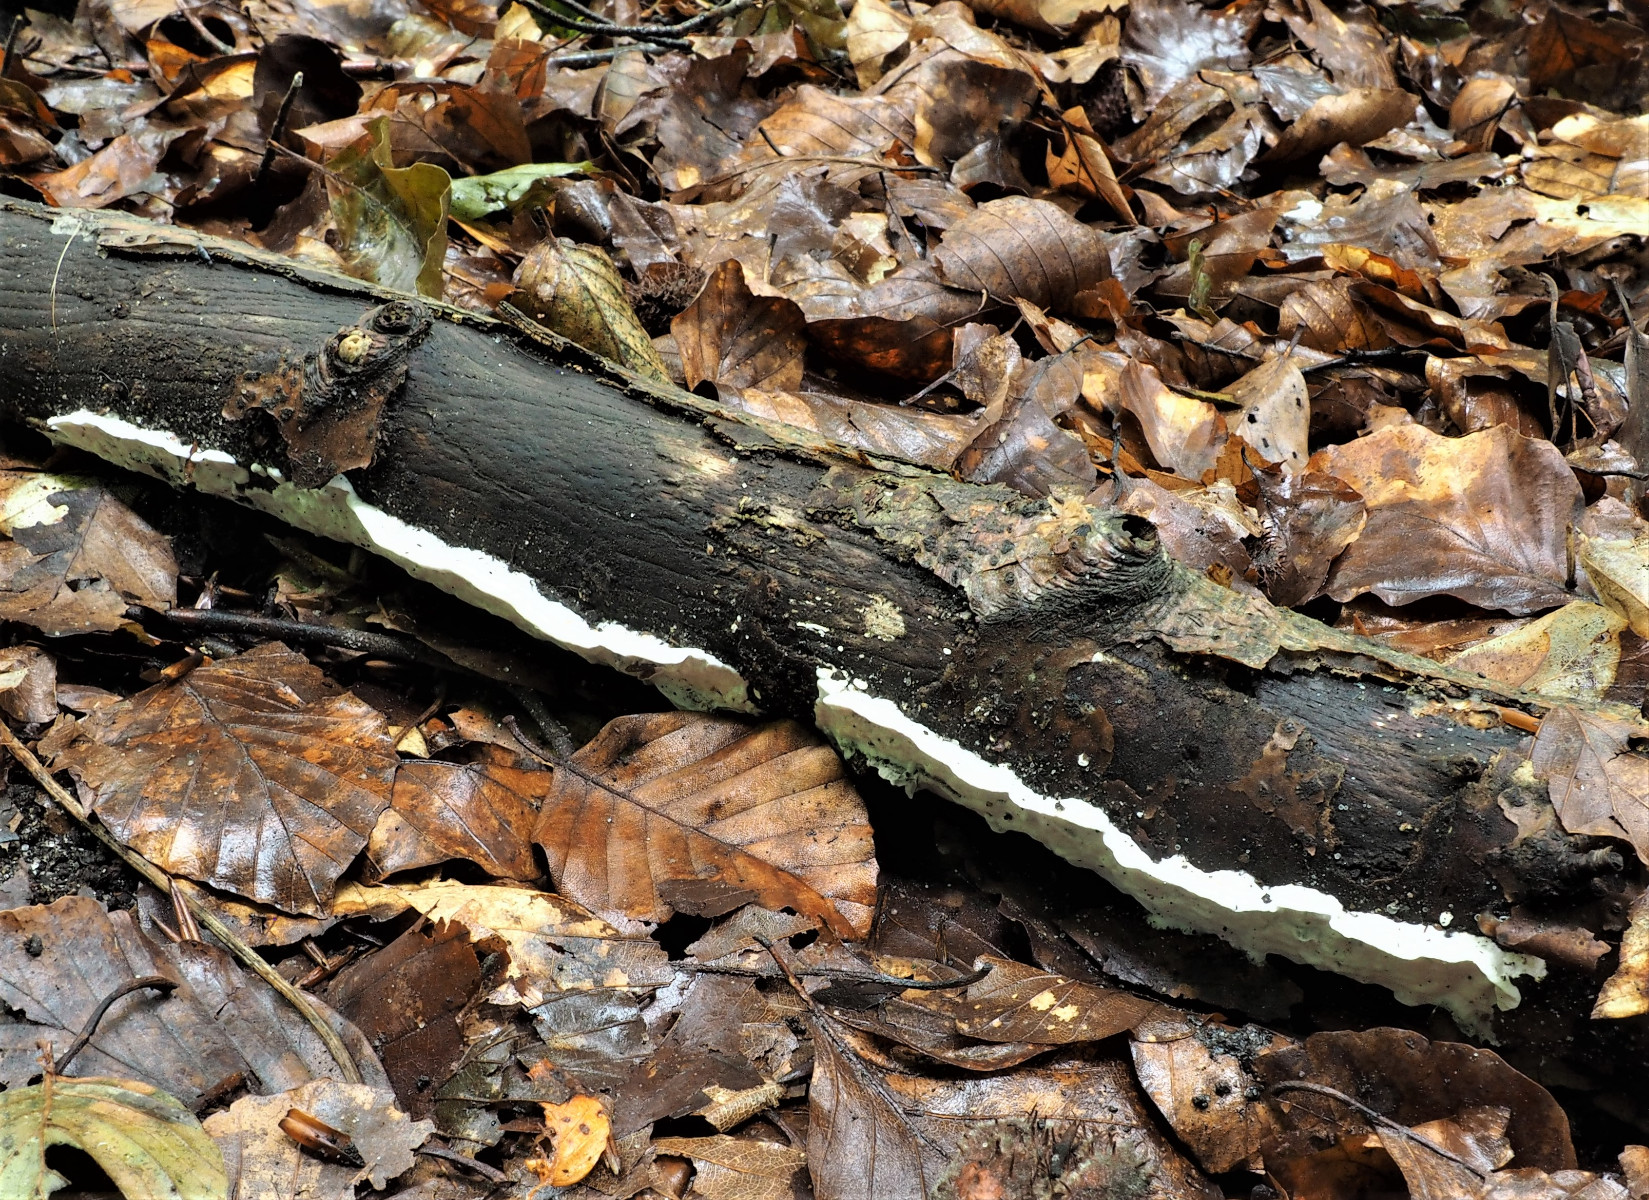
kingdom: Fungi
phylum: Basidiomycota
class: Agaricomycetes
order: Polyporales
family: Incrustoporiaceae
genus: Skeletocutis
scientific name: Skeletocutis nemoralis
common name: stor krystalporesvamp
